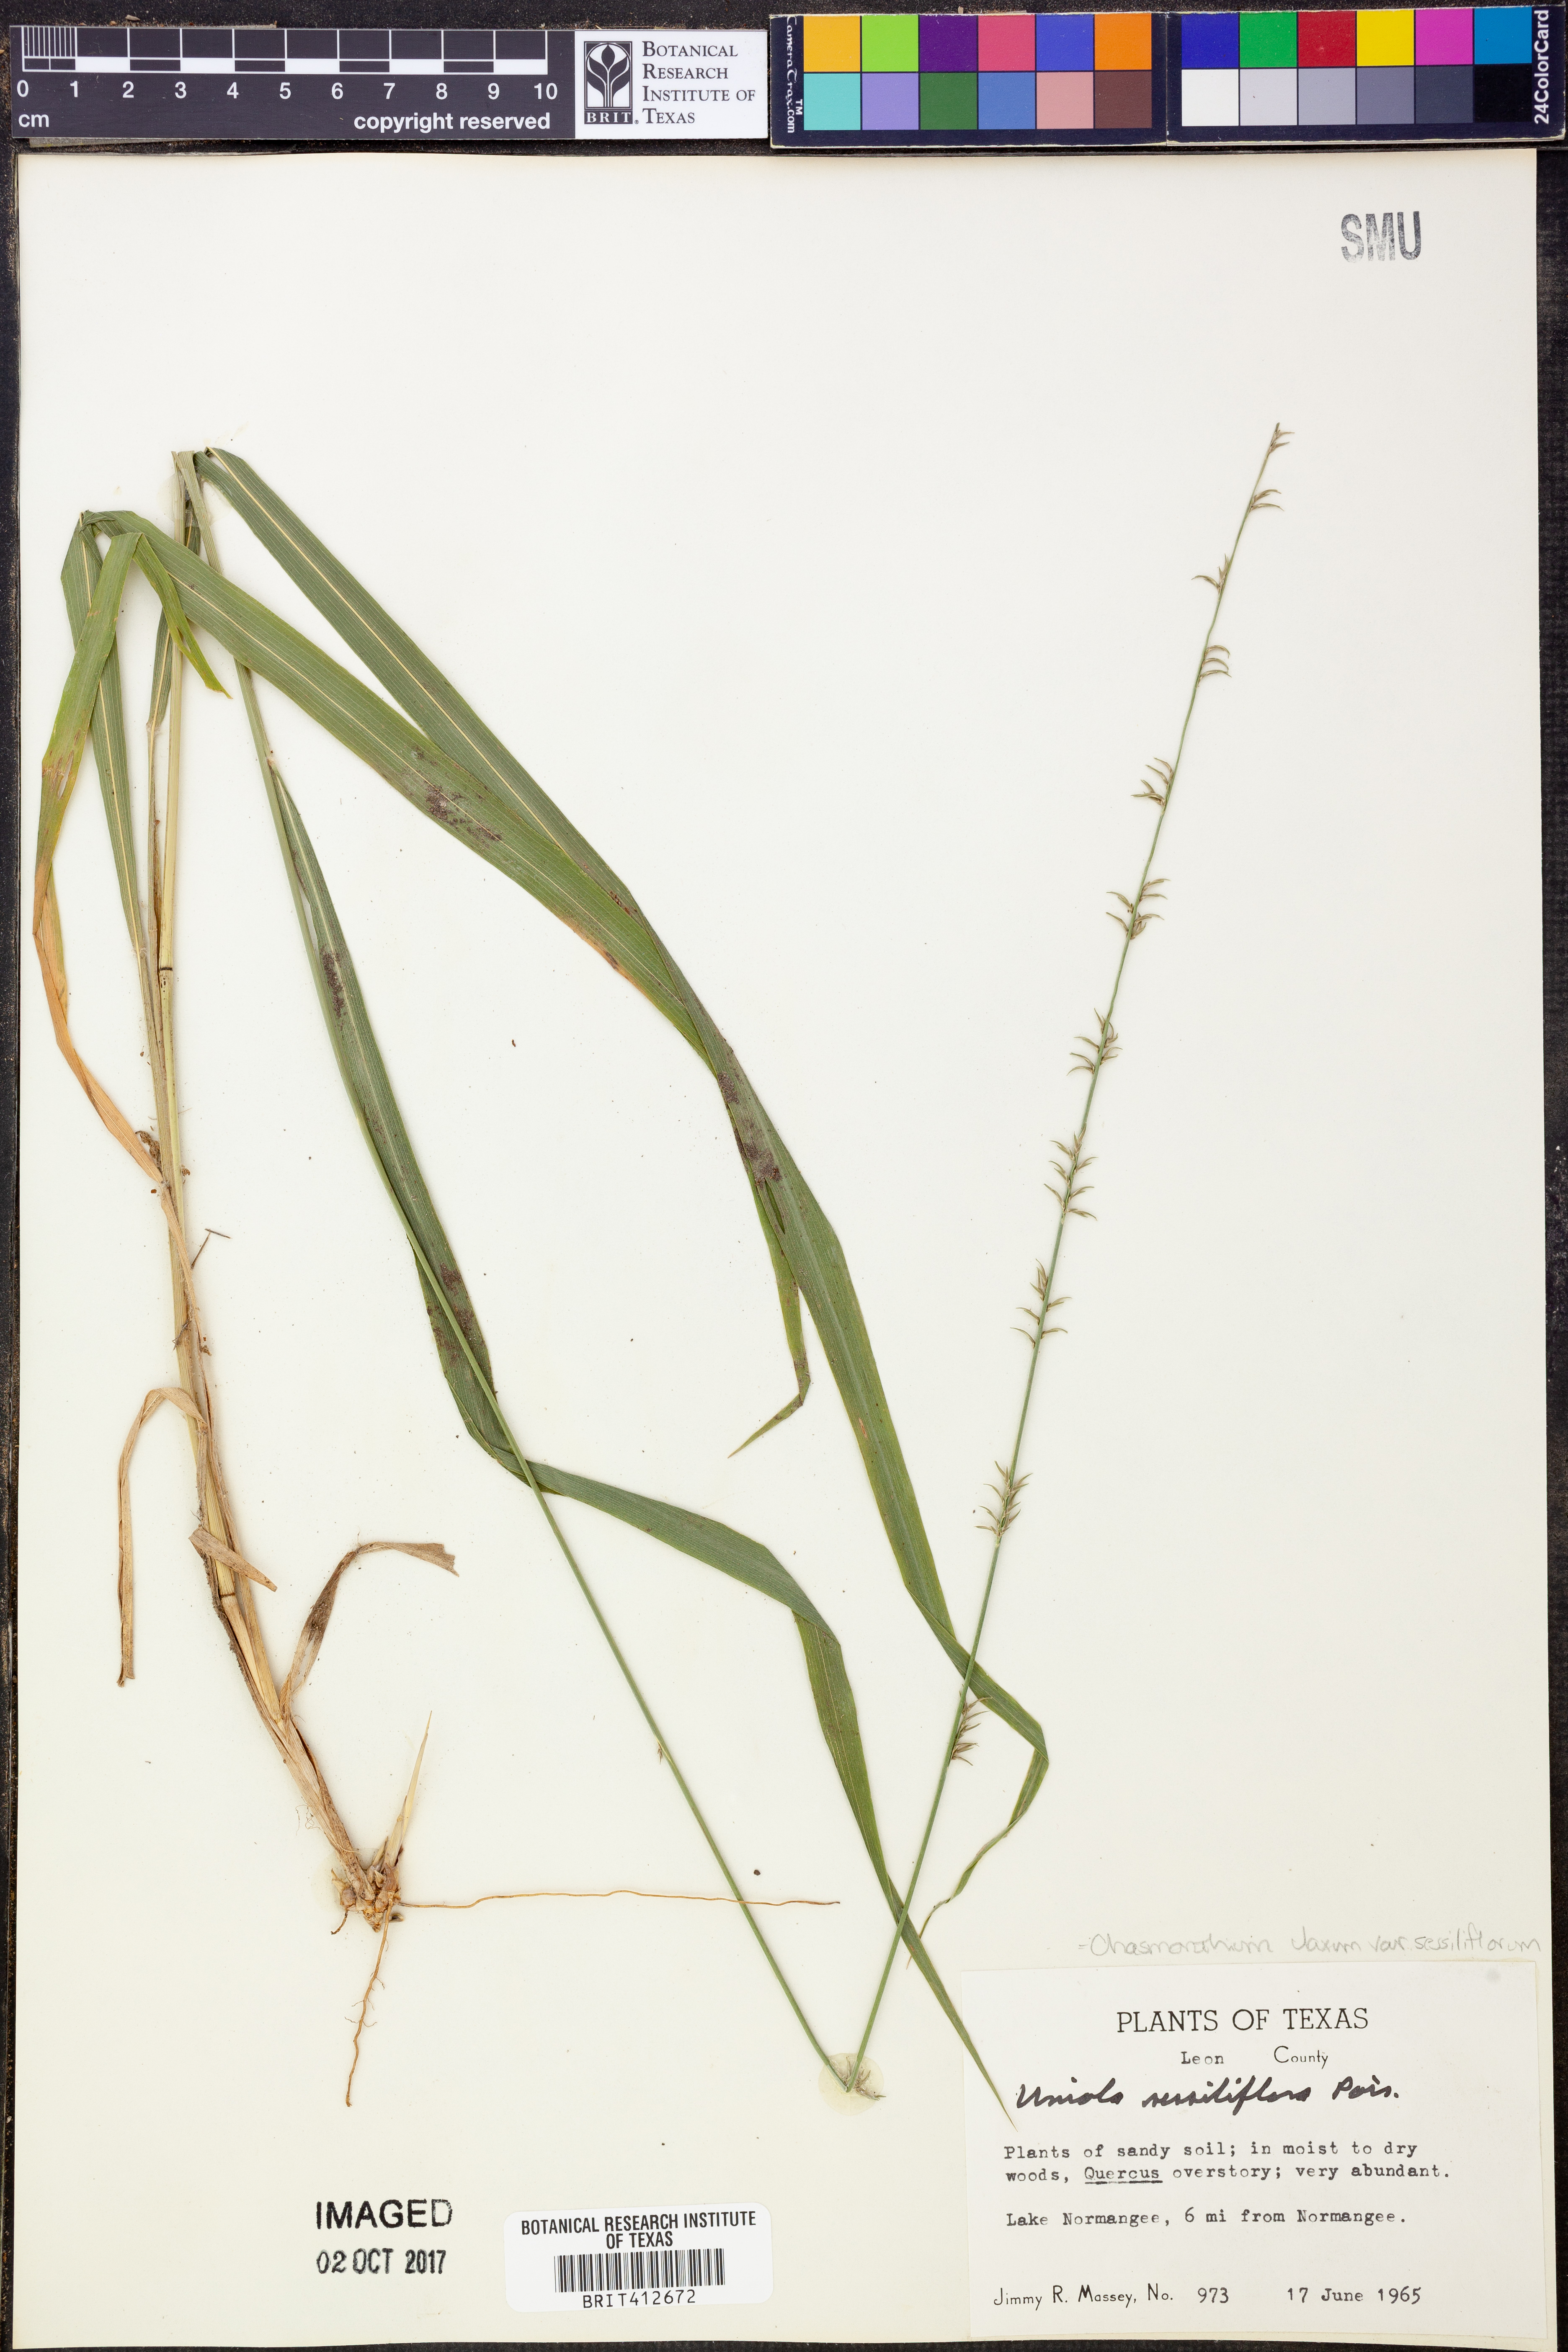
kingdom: Plantae
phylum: Tracheophyta
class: Liliopsida
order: Poales
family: Poaceae
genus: Chasmanthium
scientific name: Chasmanthium laxum
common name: Slender chasmanthium
